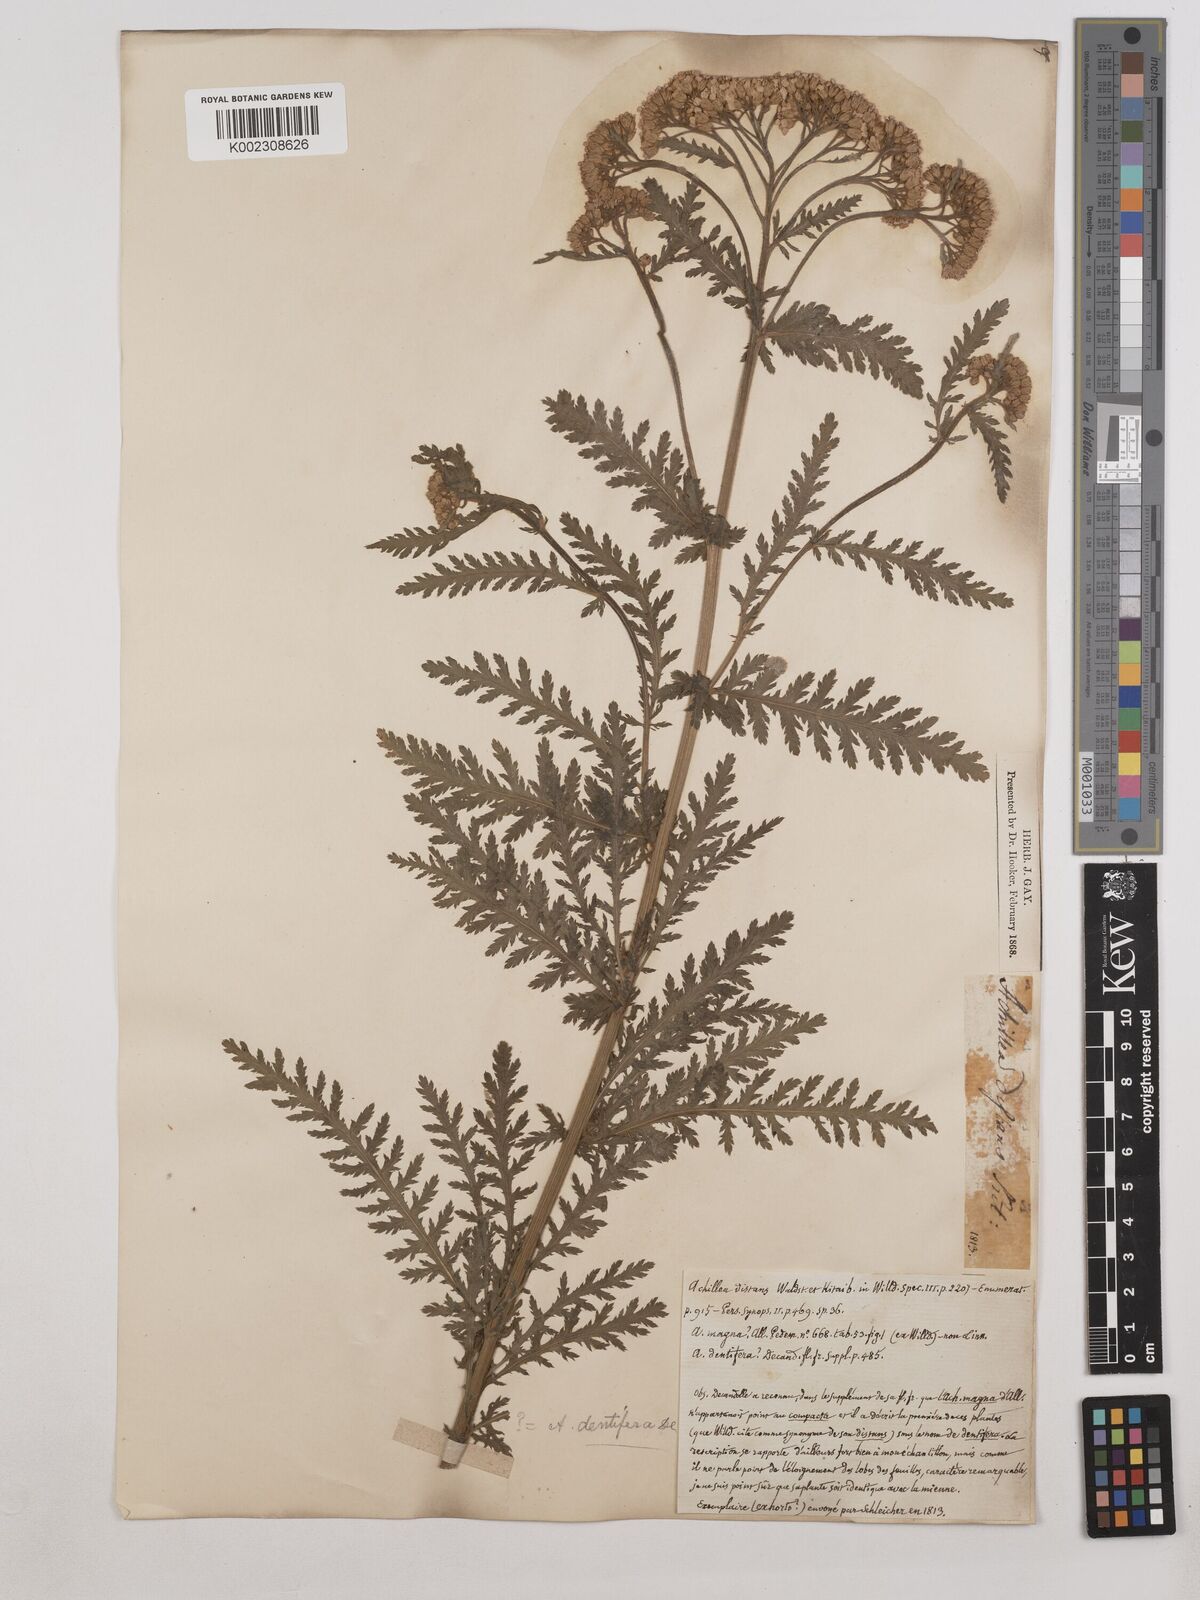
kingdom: Plantae
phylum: Tracheophyta
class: Magnoliopsida
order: Asterales
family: Asteraceae
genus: Achillea
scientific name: Achillea distans
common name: Tall yarrow
